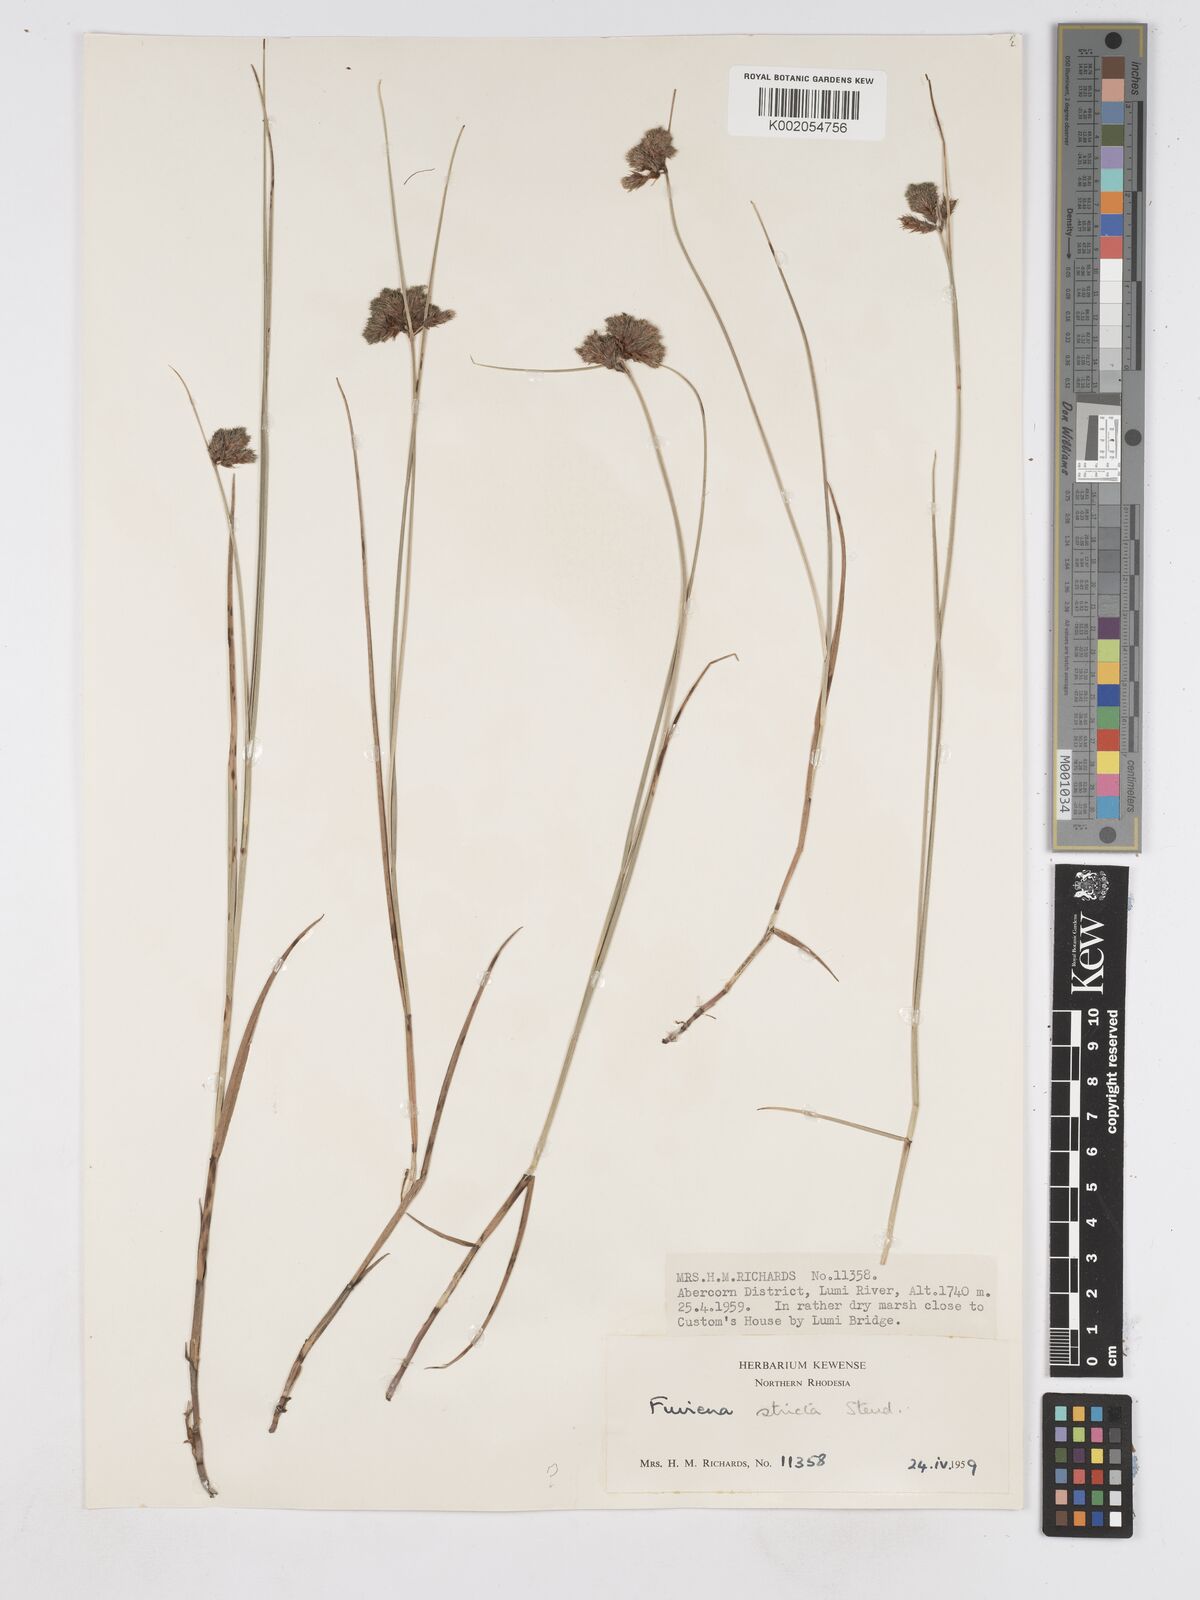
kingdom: Plantae
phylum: Tracheophyta
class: Liliopsida
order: Poales
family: Cyperaceae
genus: Fuirena
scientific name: Fuirena stricta
